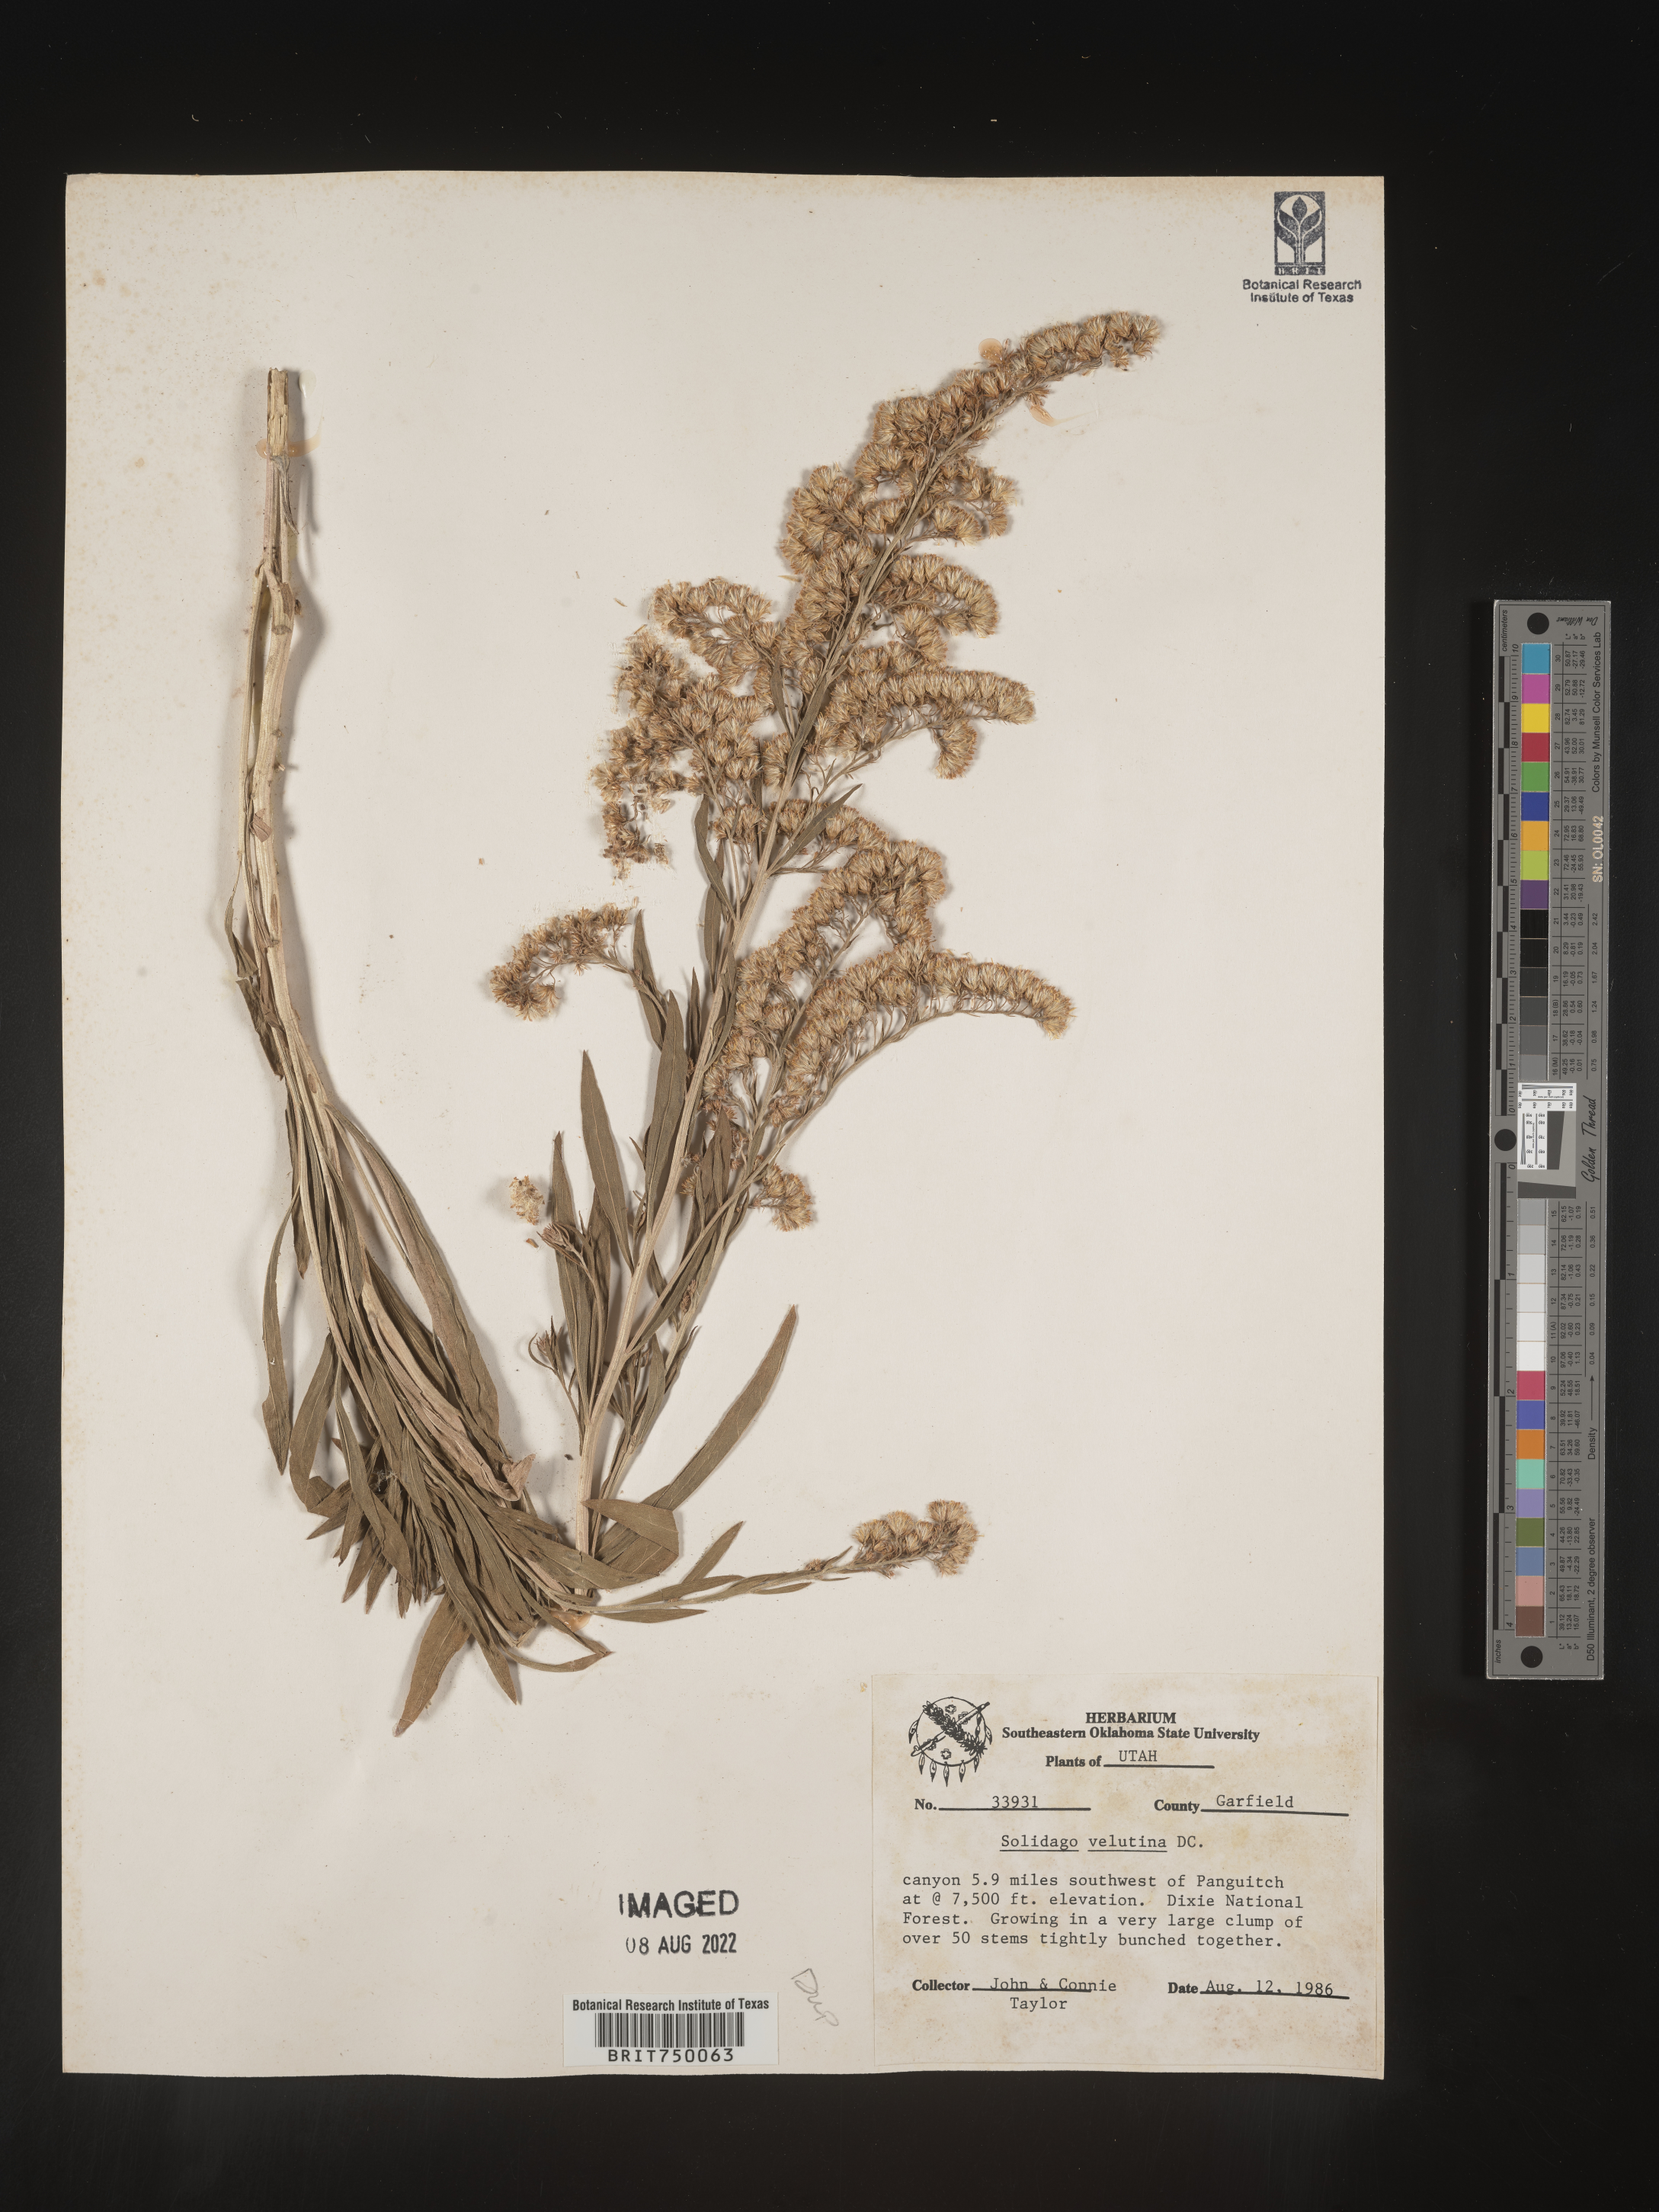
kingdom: Plantae
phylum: Tracheophyta
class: Magnoliopsida
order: Asterales
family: Asteraceae
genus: Solidago
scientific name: Solidago velutina
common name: Three-nerve goldenrod
